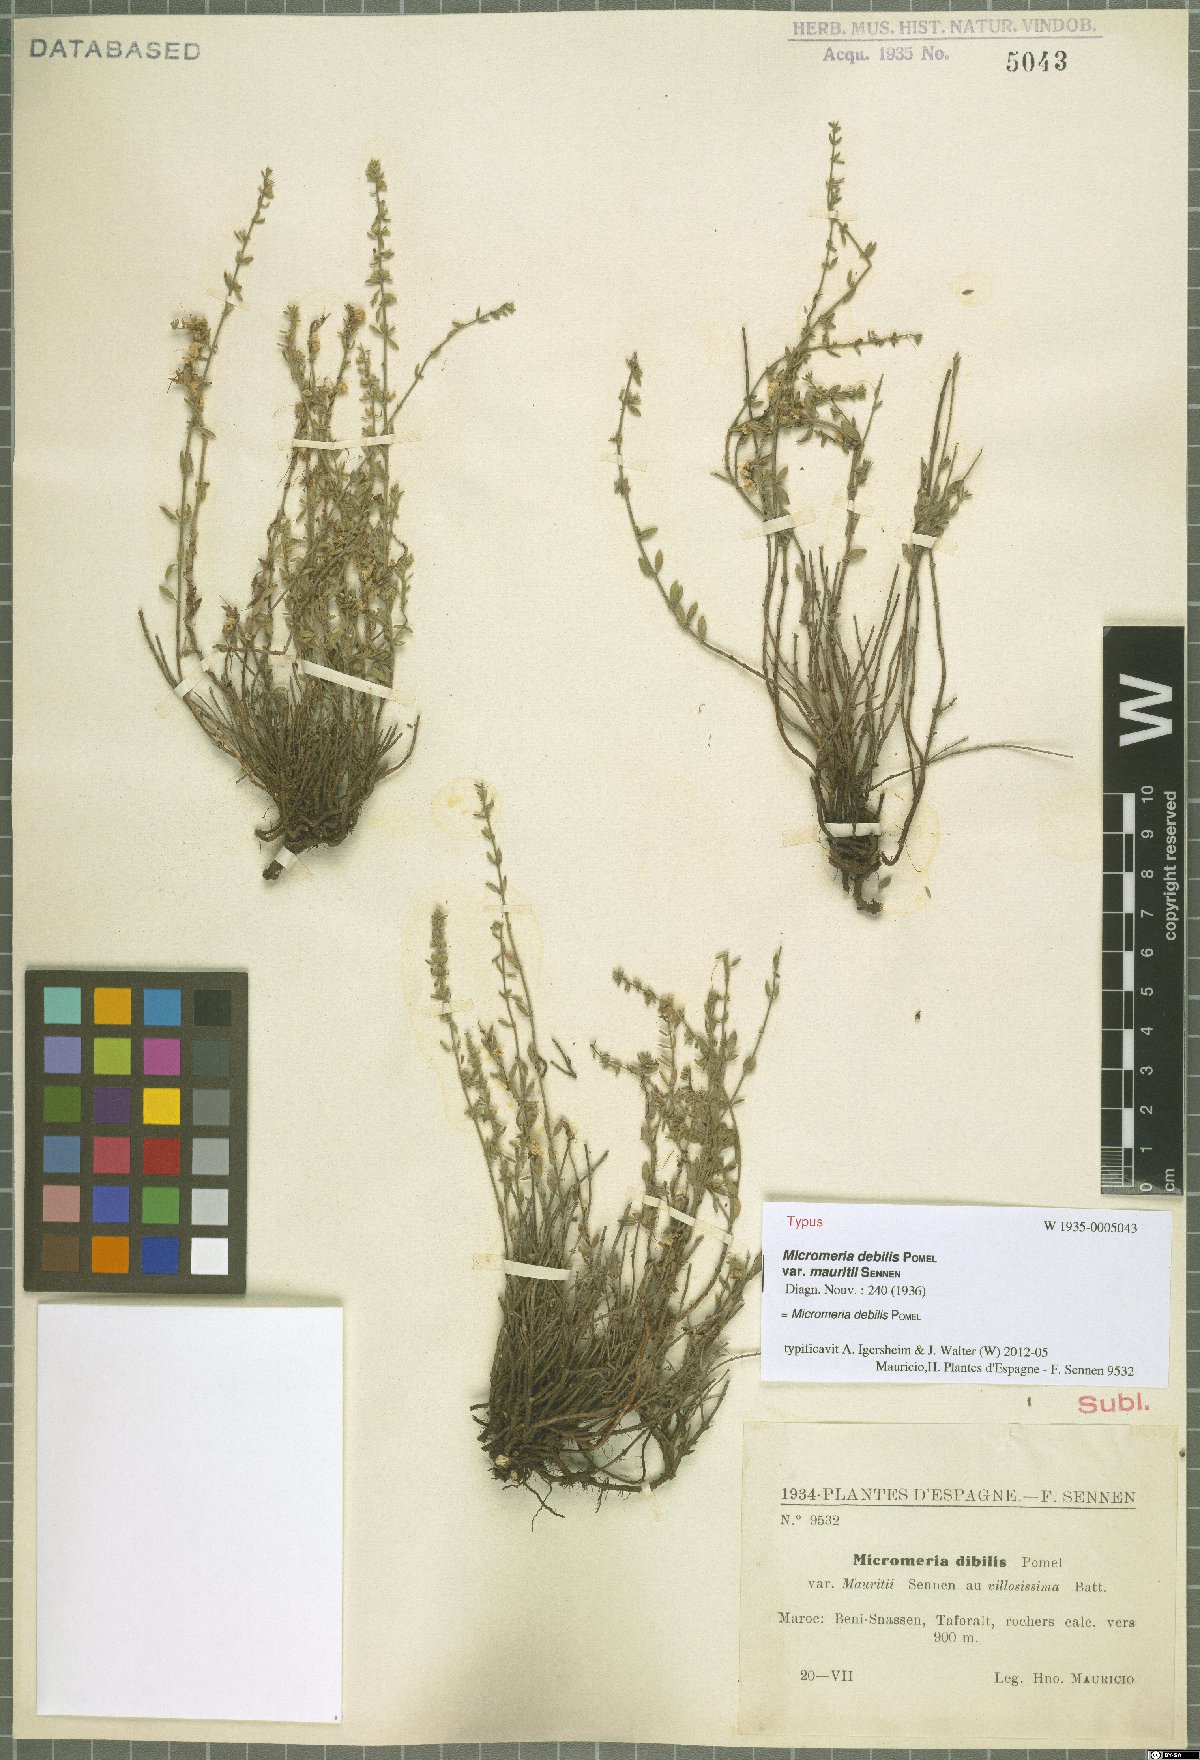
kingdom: Plantae
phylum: Tracheophyta
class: Magnoliopsida
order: Lamiales
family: Lamiaceae
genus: Micromeria
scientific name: Micromeria debilis
